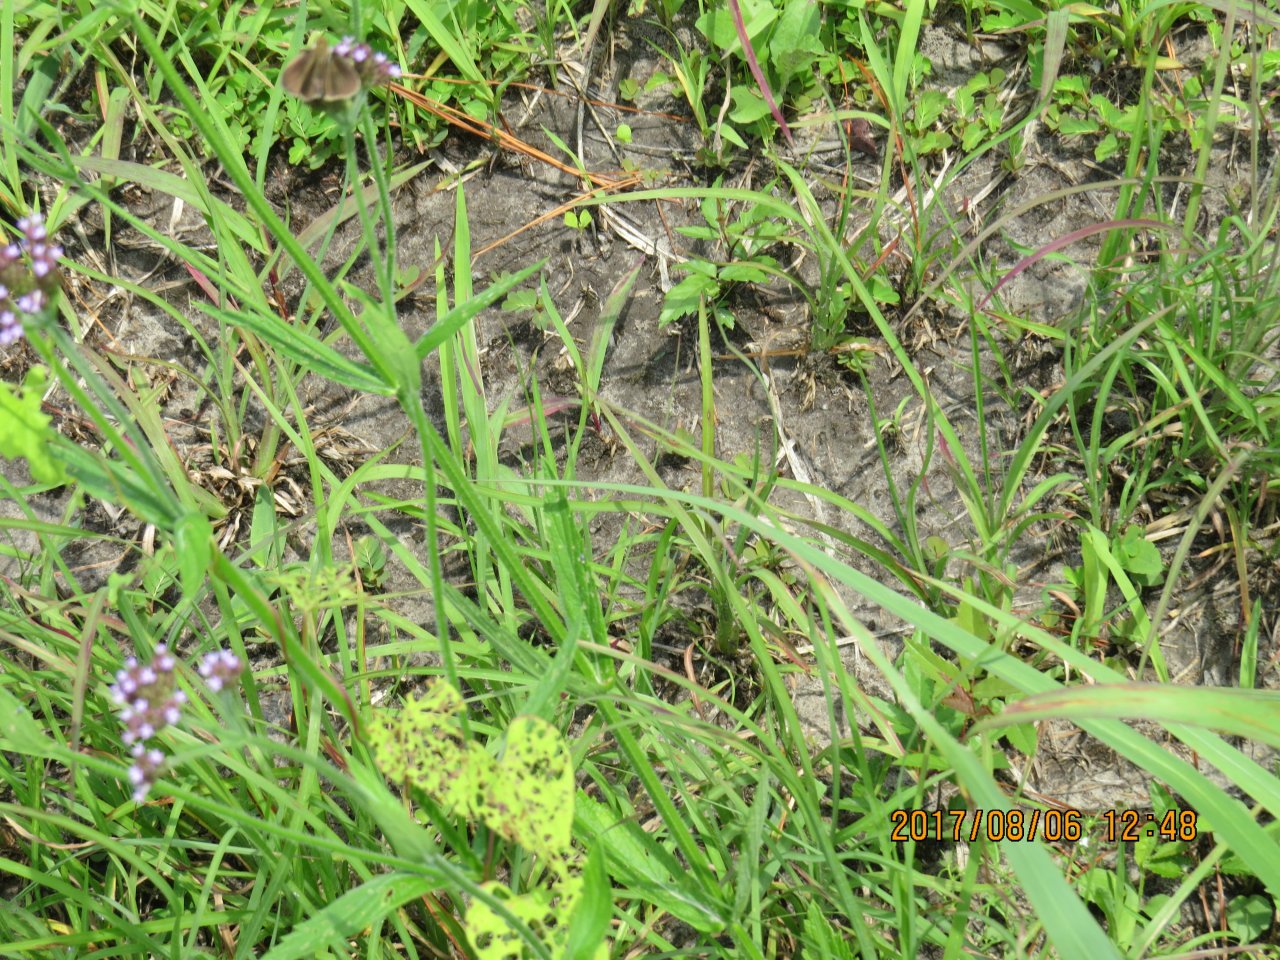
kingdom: Animalia
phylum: Arthropoda
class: Insecta
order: Lepidoptera
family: Hesperiidae
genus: Gesta
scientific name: Gesta
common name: Horace's Duskywing
